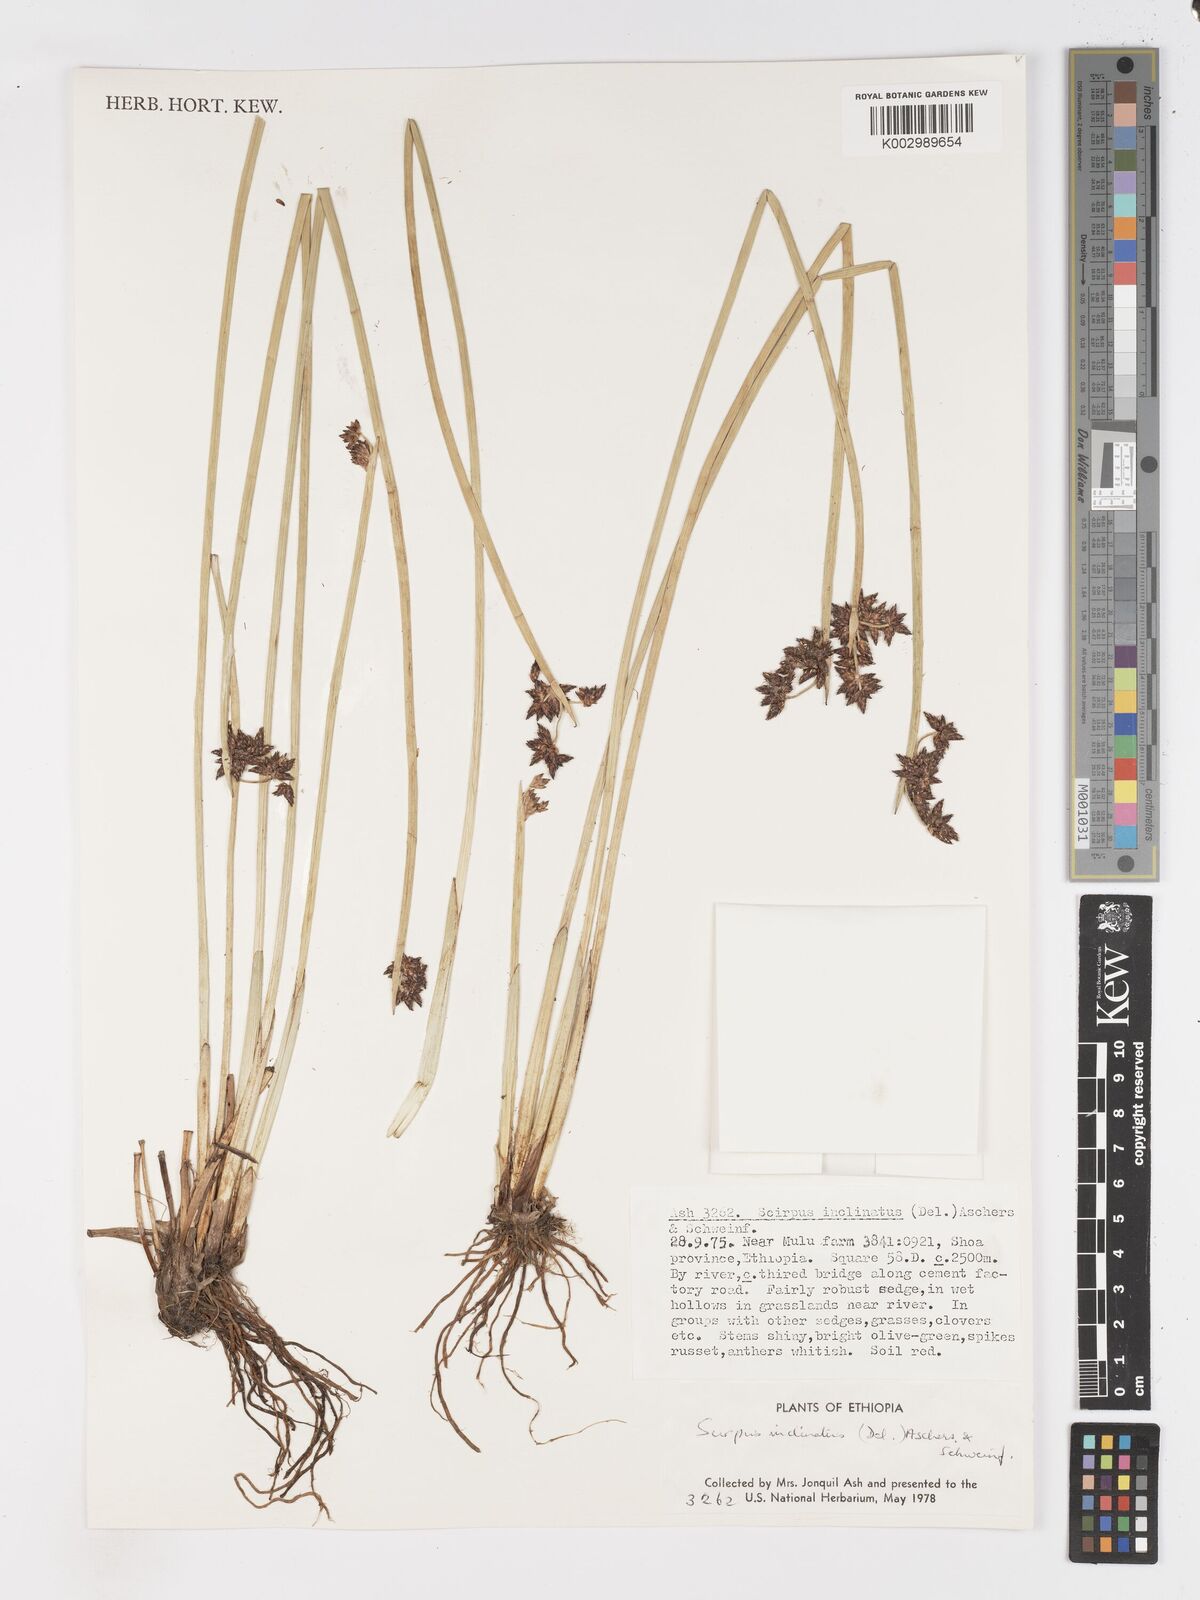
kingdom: Plantae
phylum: Tracheophyta
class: Liliopsida
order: Poales
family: Cyperaceae
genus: Schoenoplectiella
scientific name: Schoenoplectiella brachyceras
